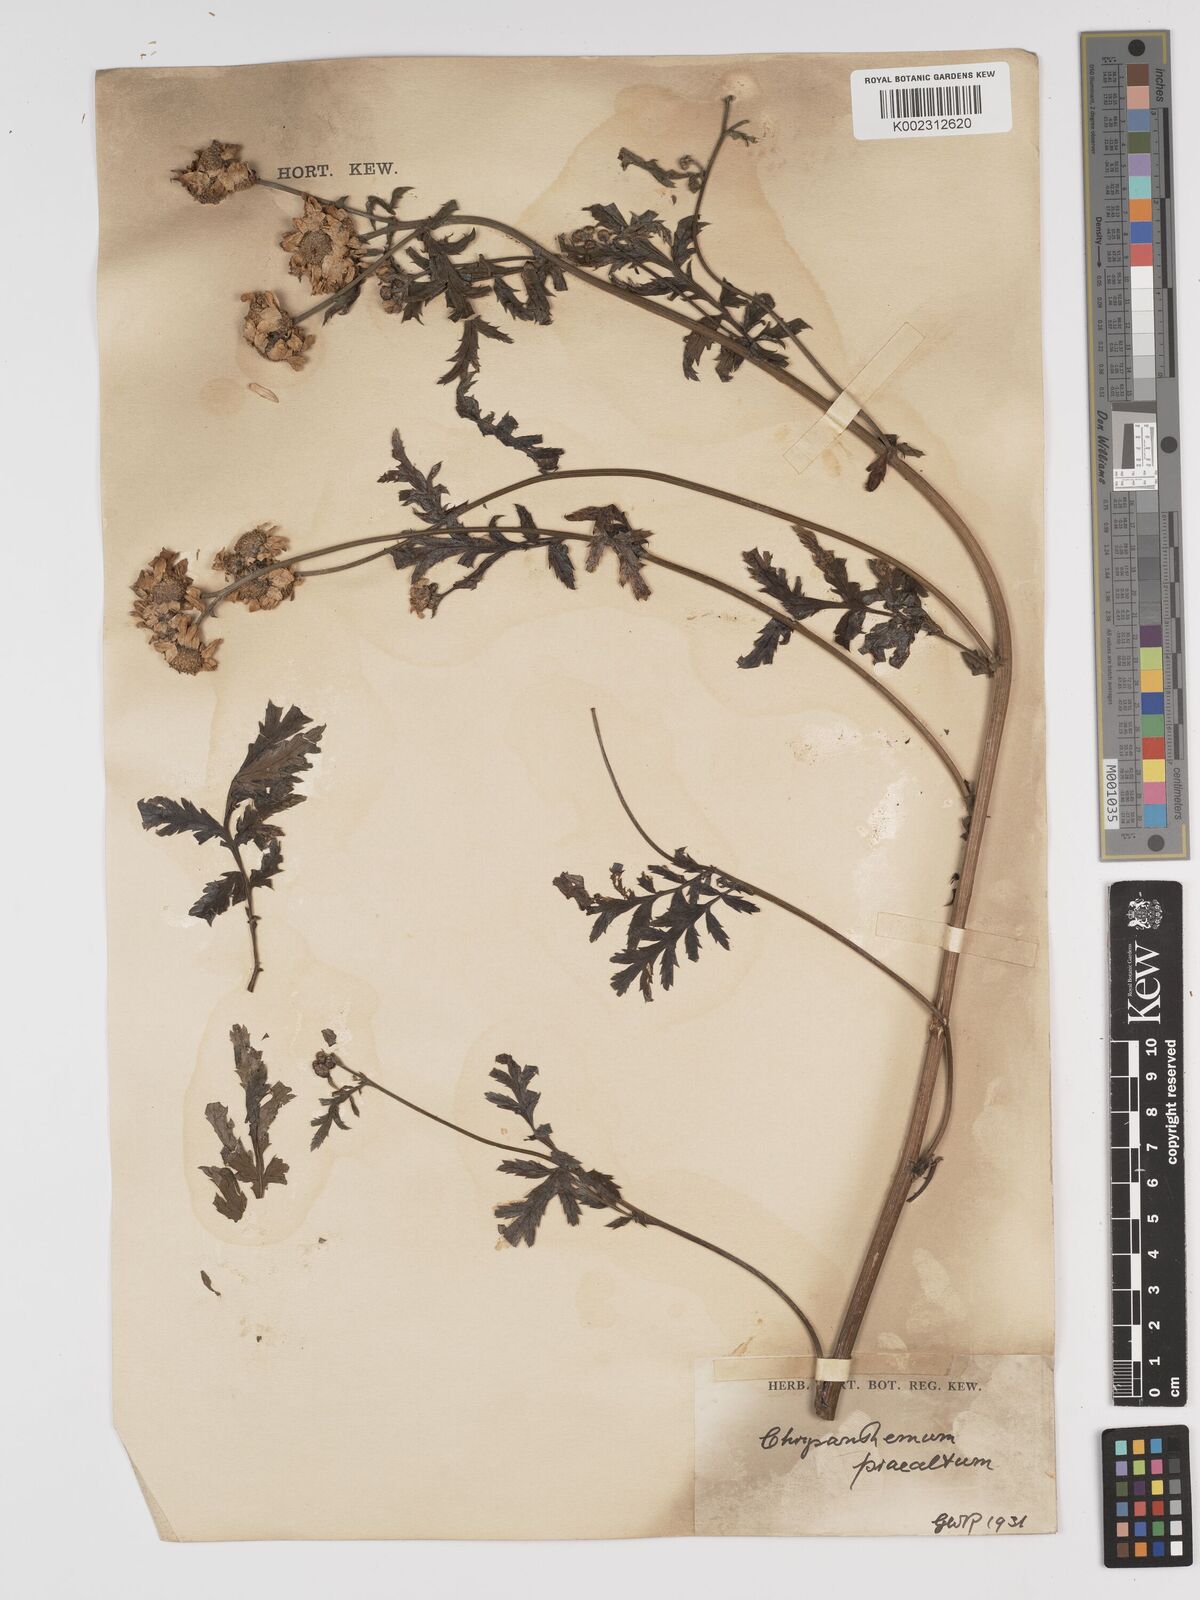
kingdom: Plantae
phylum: Tracheophyta
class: Magnoliopsida
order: Asterales
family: Asteraceae
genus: Tanacetum
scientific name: Tanacetum corymbosum
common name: Scentless feverfew
